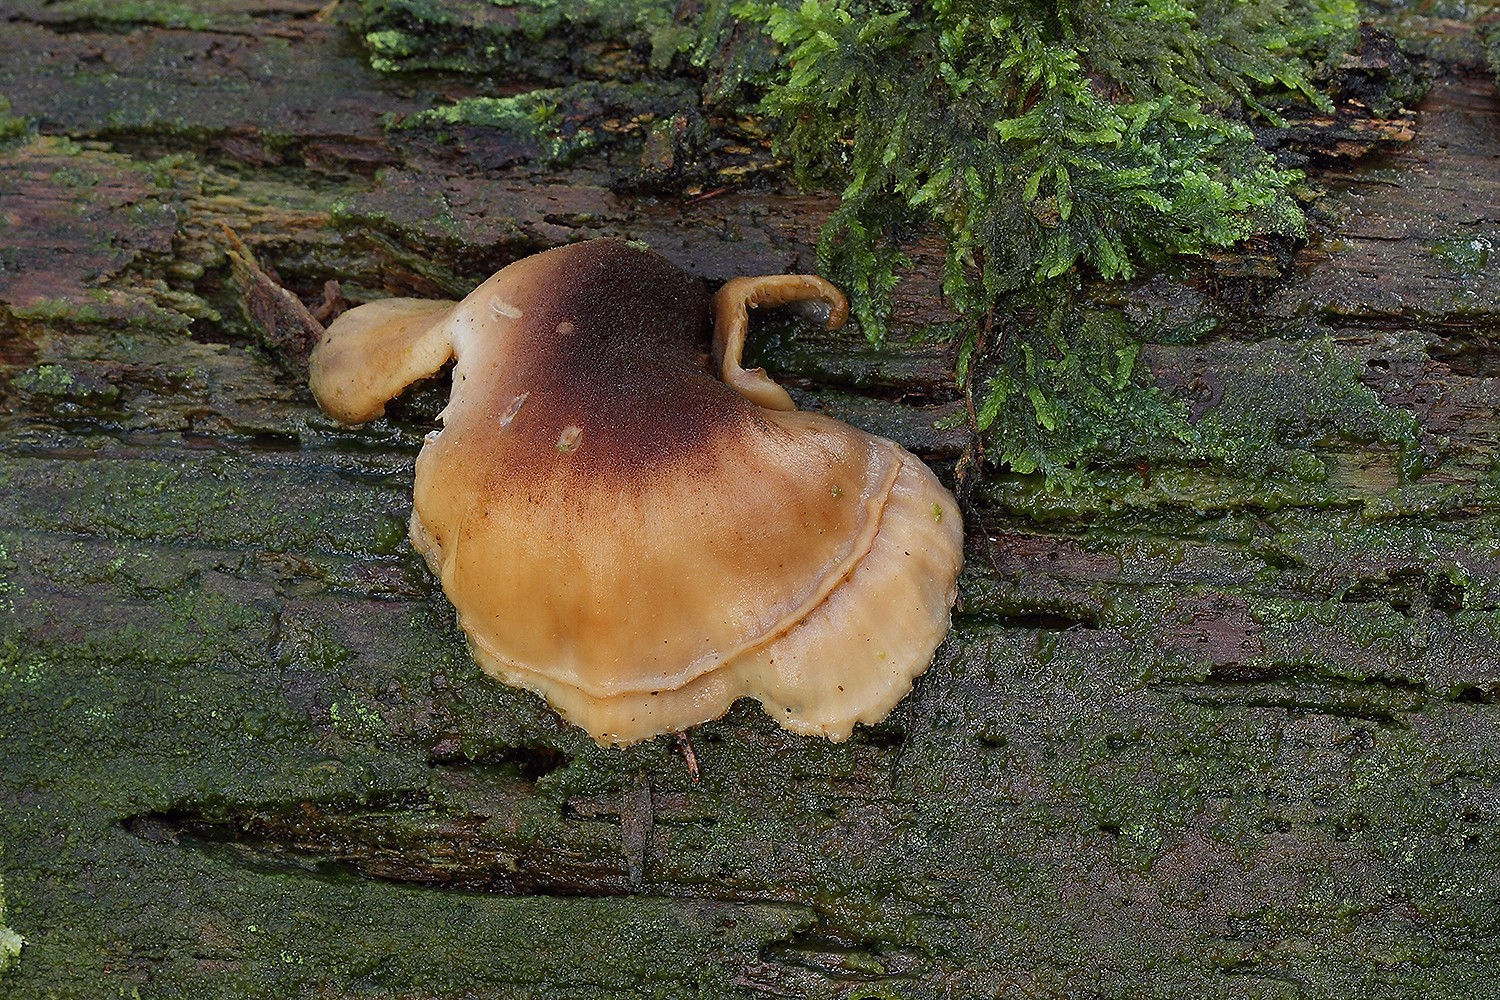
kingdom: Fungi
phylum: Basidiomycota
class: Agaricomycetes
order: Russulales
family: Auriscalpiaceae
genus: Lentinellus
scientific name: Lentinellus ursinus
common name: børstehåret savbladhat
